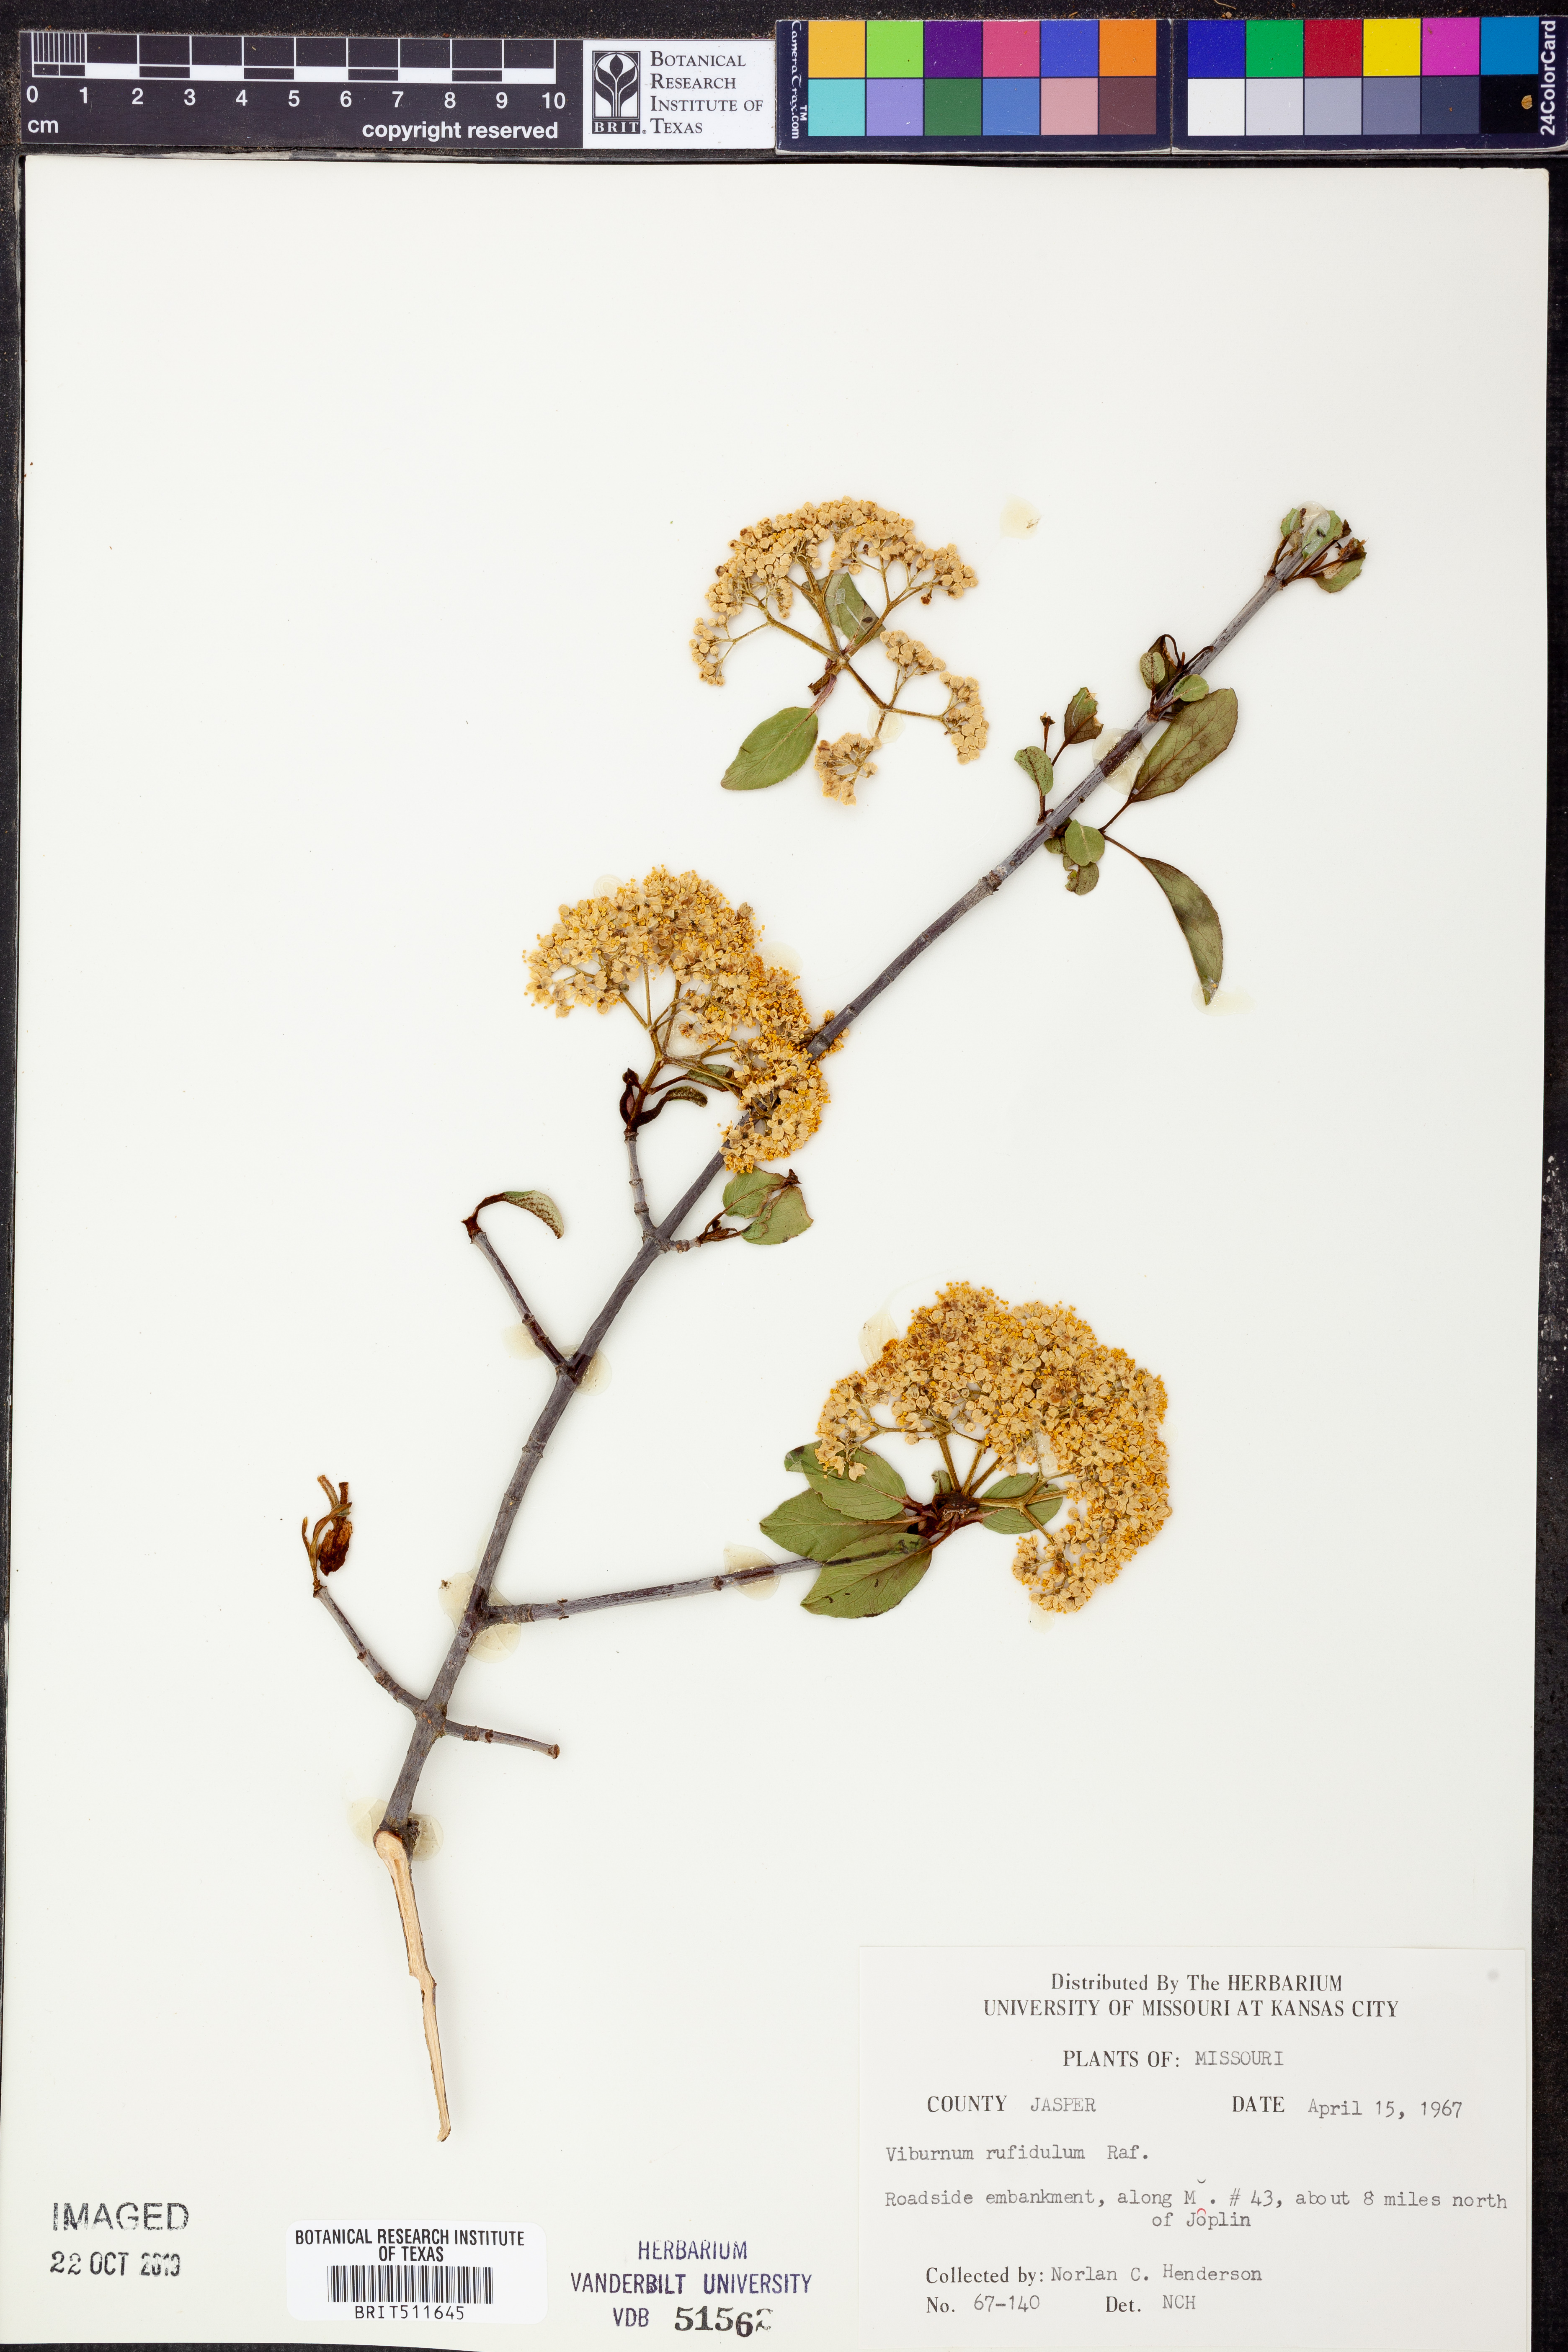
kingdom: Plantae
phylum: Tracheophyta
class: Magnoliopsida
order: Dipsacales
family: Viburnaceae
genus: Viburnum
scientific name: Viburnum rufidulum
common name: Blue haw
